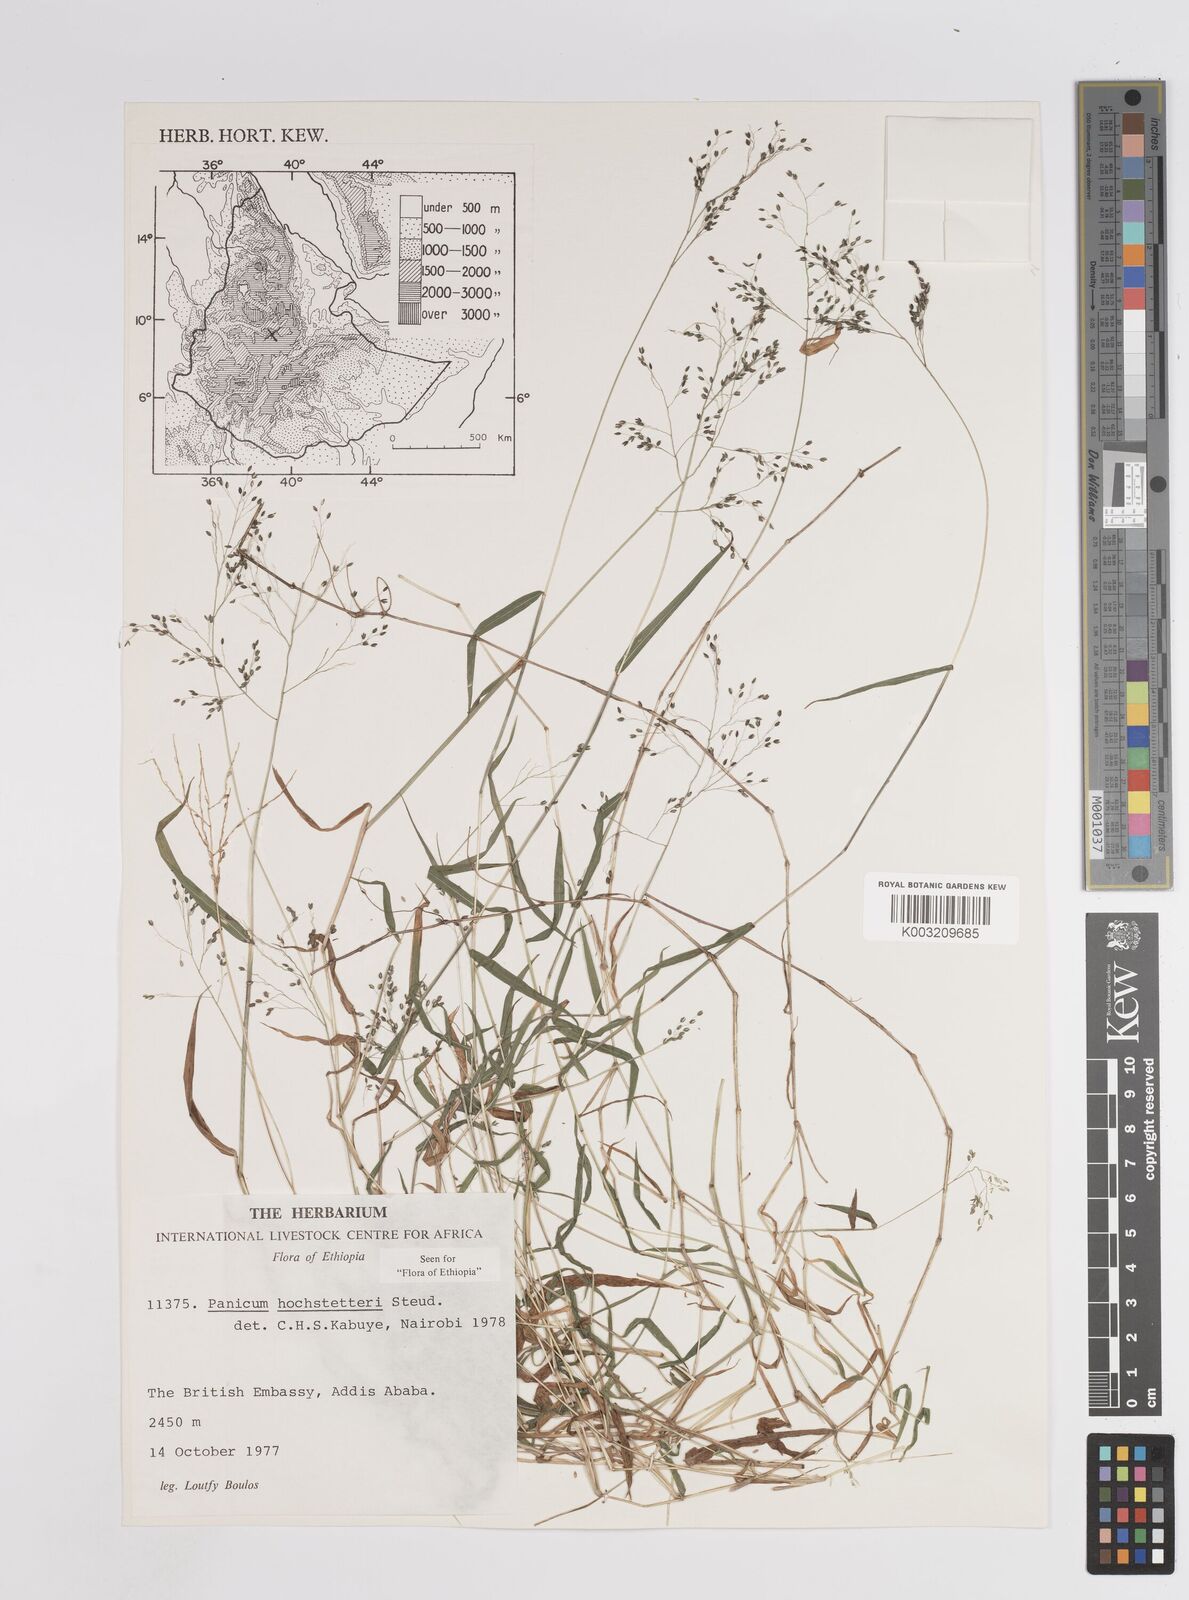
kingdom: Plantae
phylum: Tracheophyta
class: Liliopsida
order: Poales
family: Poaceae
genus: Panicum
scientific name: Panicum hochstetteri
